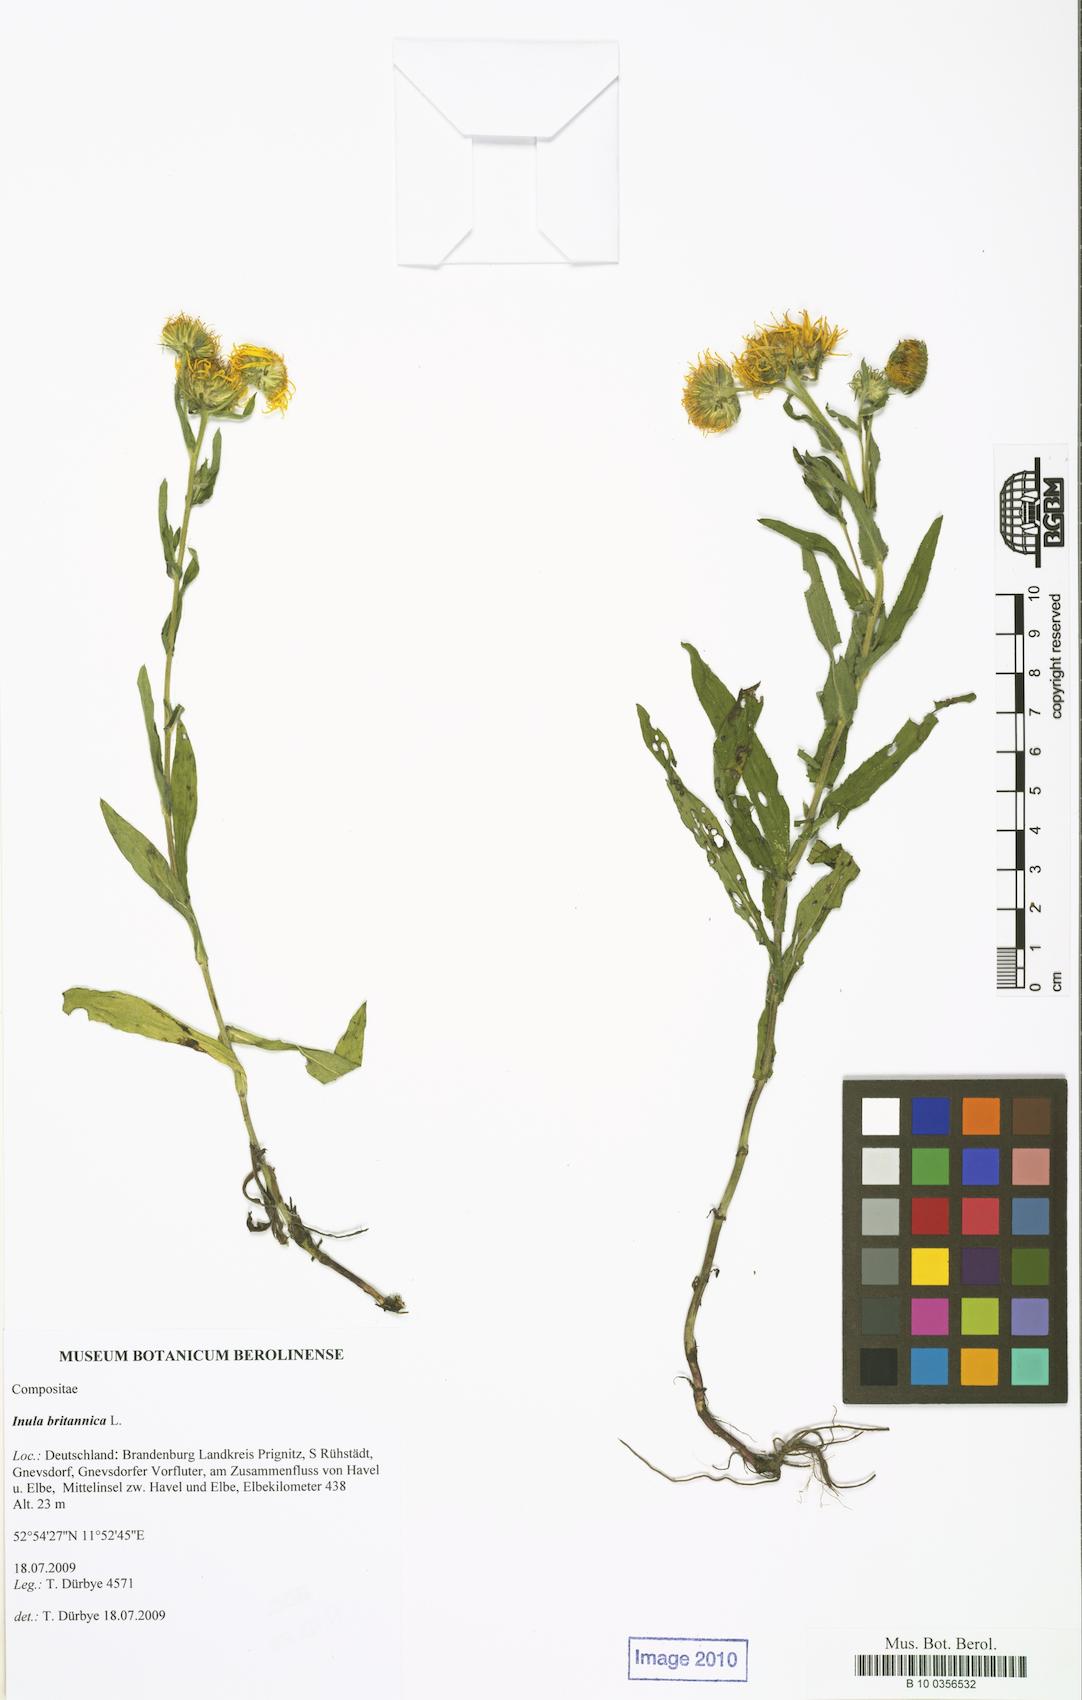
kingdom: Plantae
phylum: Tracheophyta
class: Magnoliopsida
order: Asterales
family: Asteraceae
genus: Pentanema
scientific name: Pentanema britannicum
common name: British elecampane
